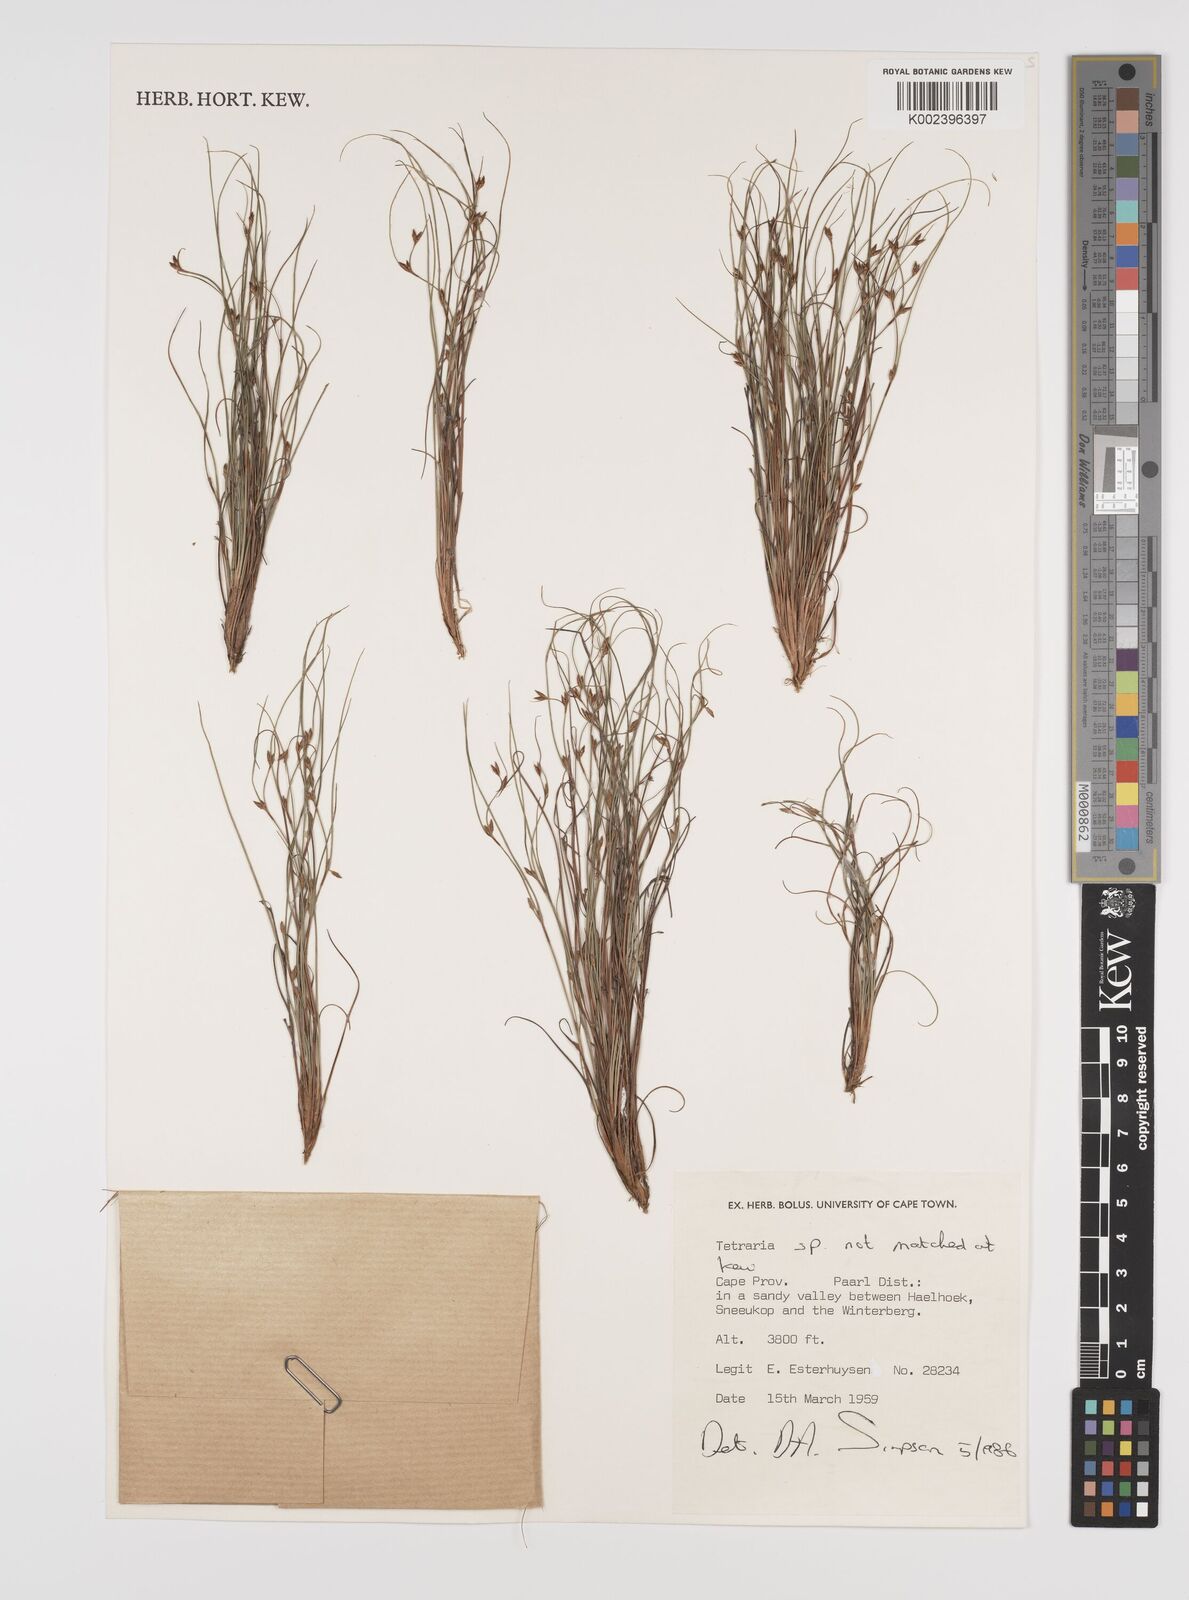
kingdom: Plantae
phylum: Tracheophyta
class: Liliopsida
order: Poales
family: Cyperaceae
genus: Tetraria
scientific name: Tetraria
